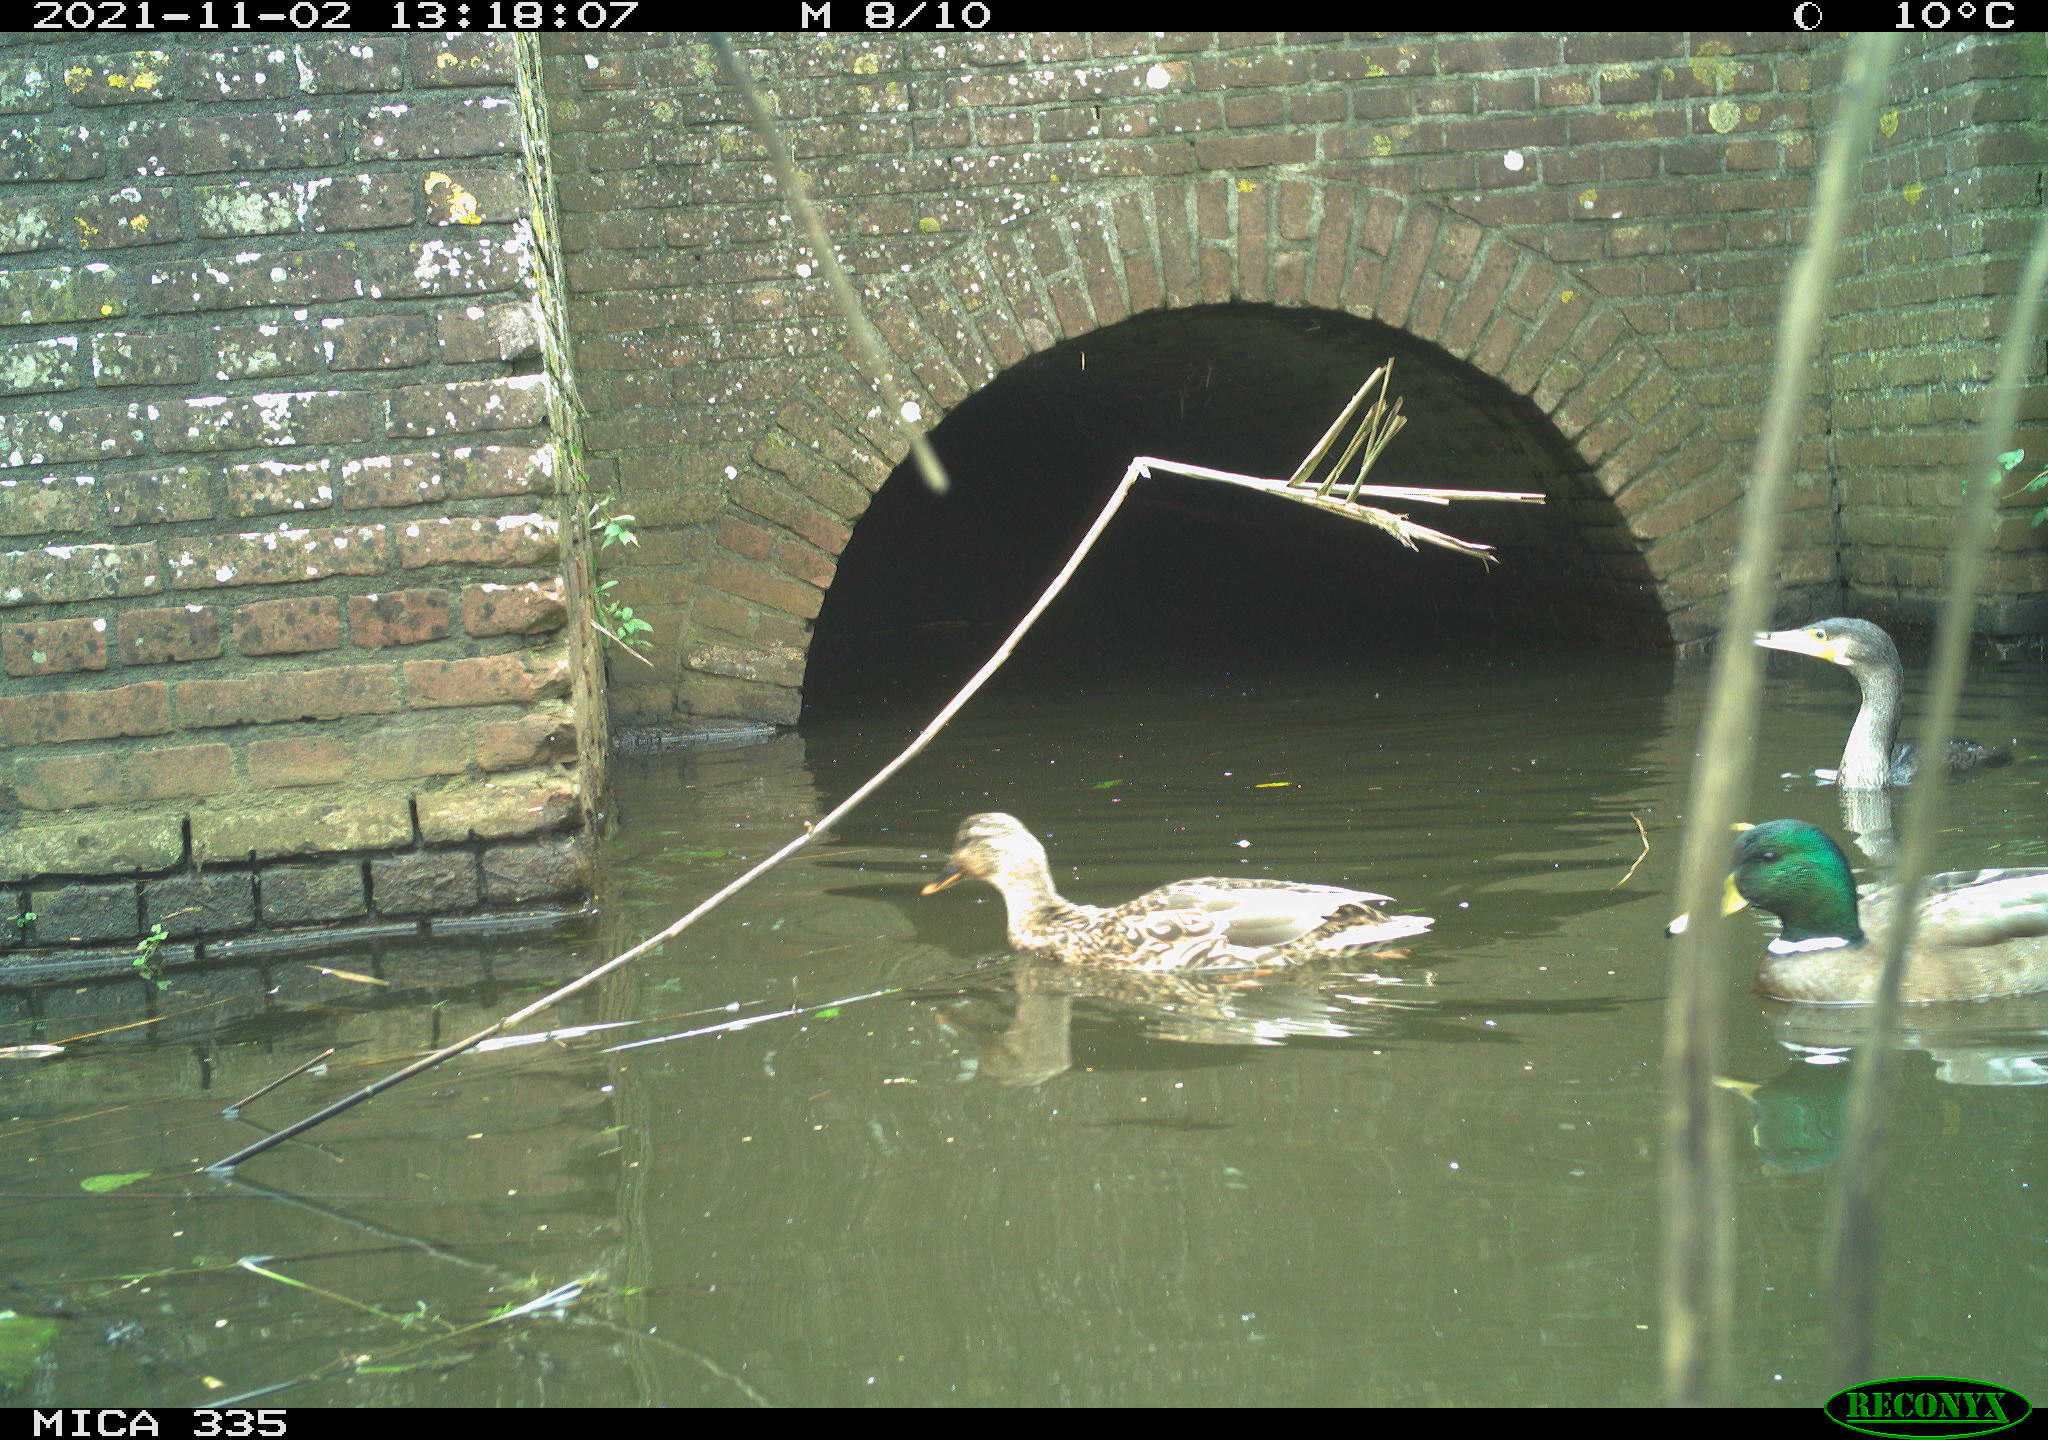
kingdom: Animalia
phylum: Chordata
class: Aves
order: Suliformes
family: Phalacrocoracidae
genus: Phalacrocorax
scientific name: Phalacrocorax carbo
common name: Great cormorant
